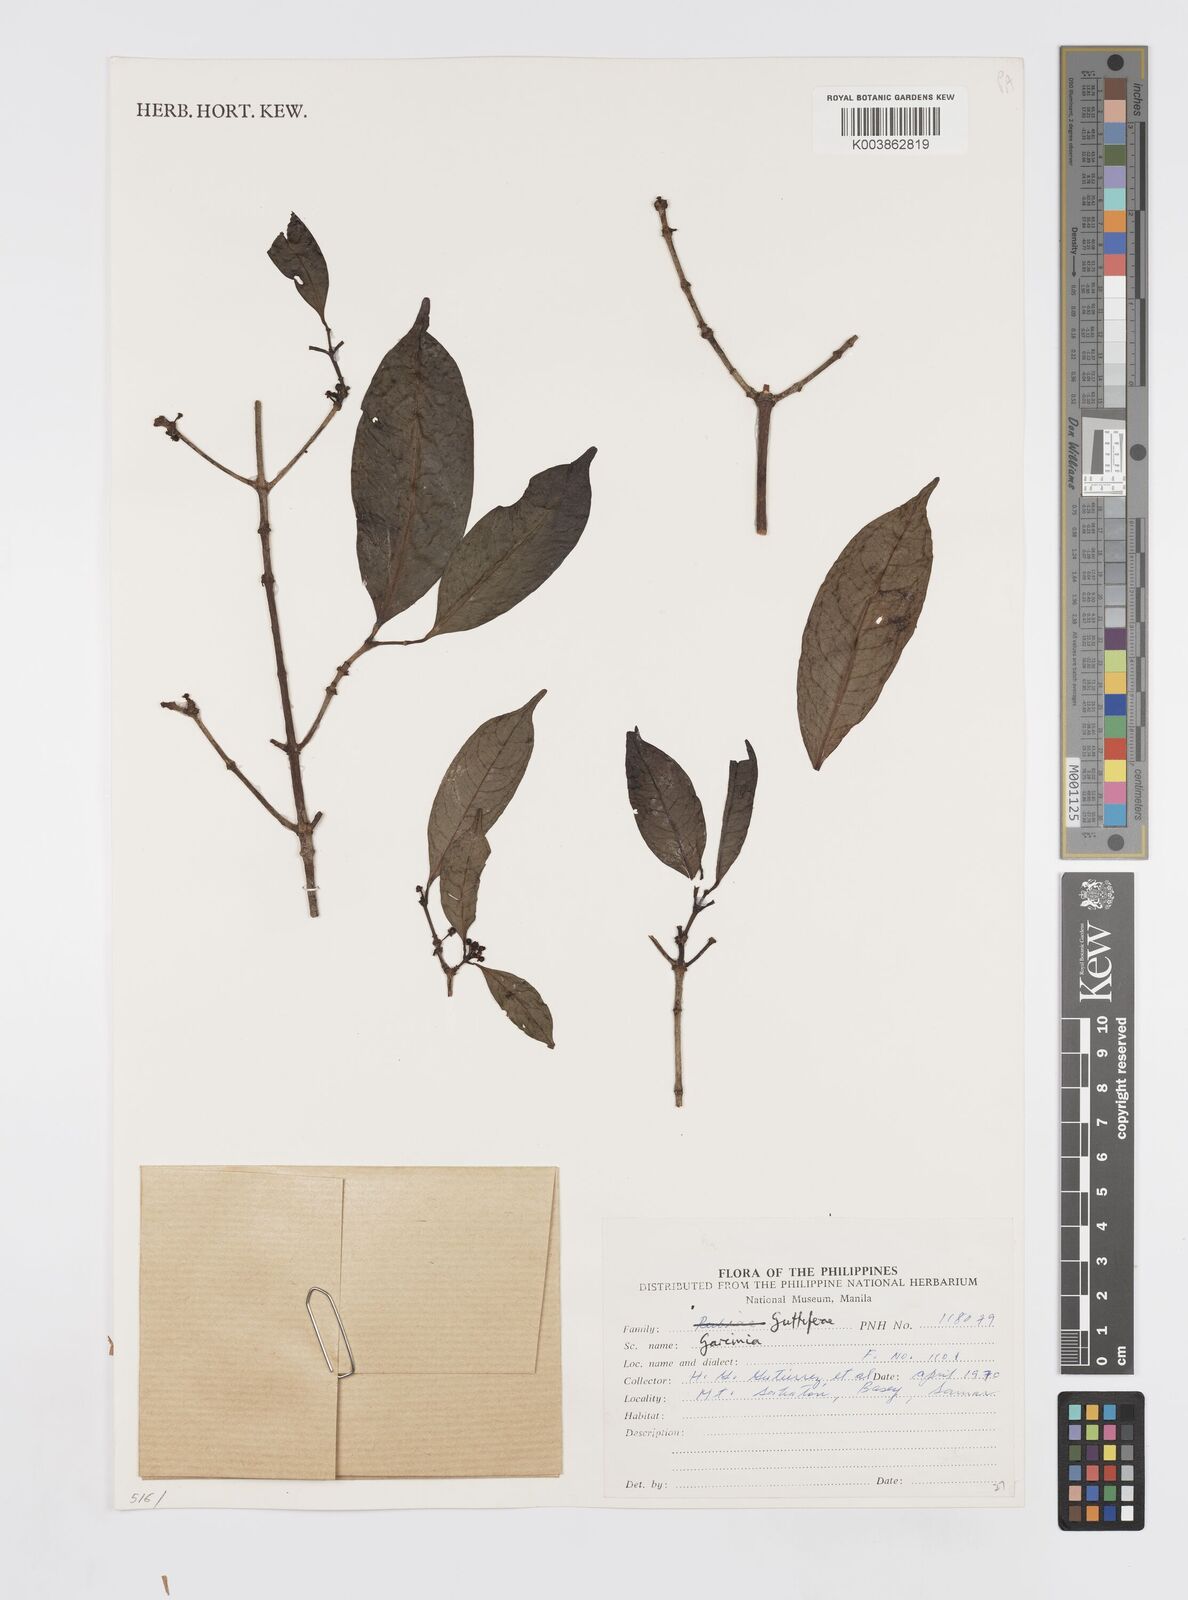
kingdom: Plantae
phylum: Tracheophyta
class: Magnoliopsida
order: Malpighiales
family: Clusiaceae
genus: Garcinia
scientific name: Garcinia
